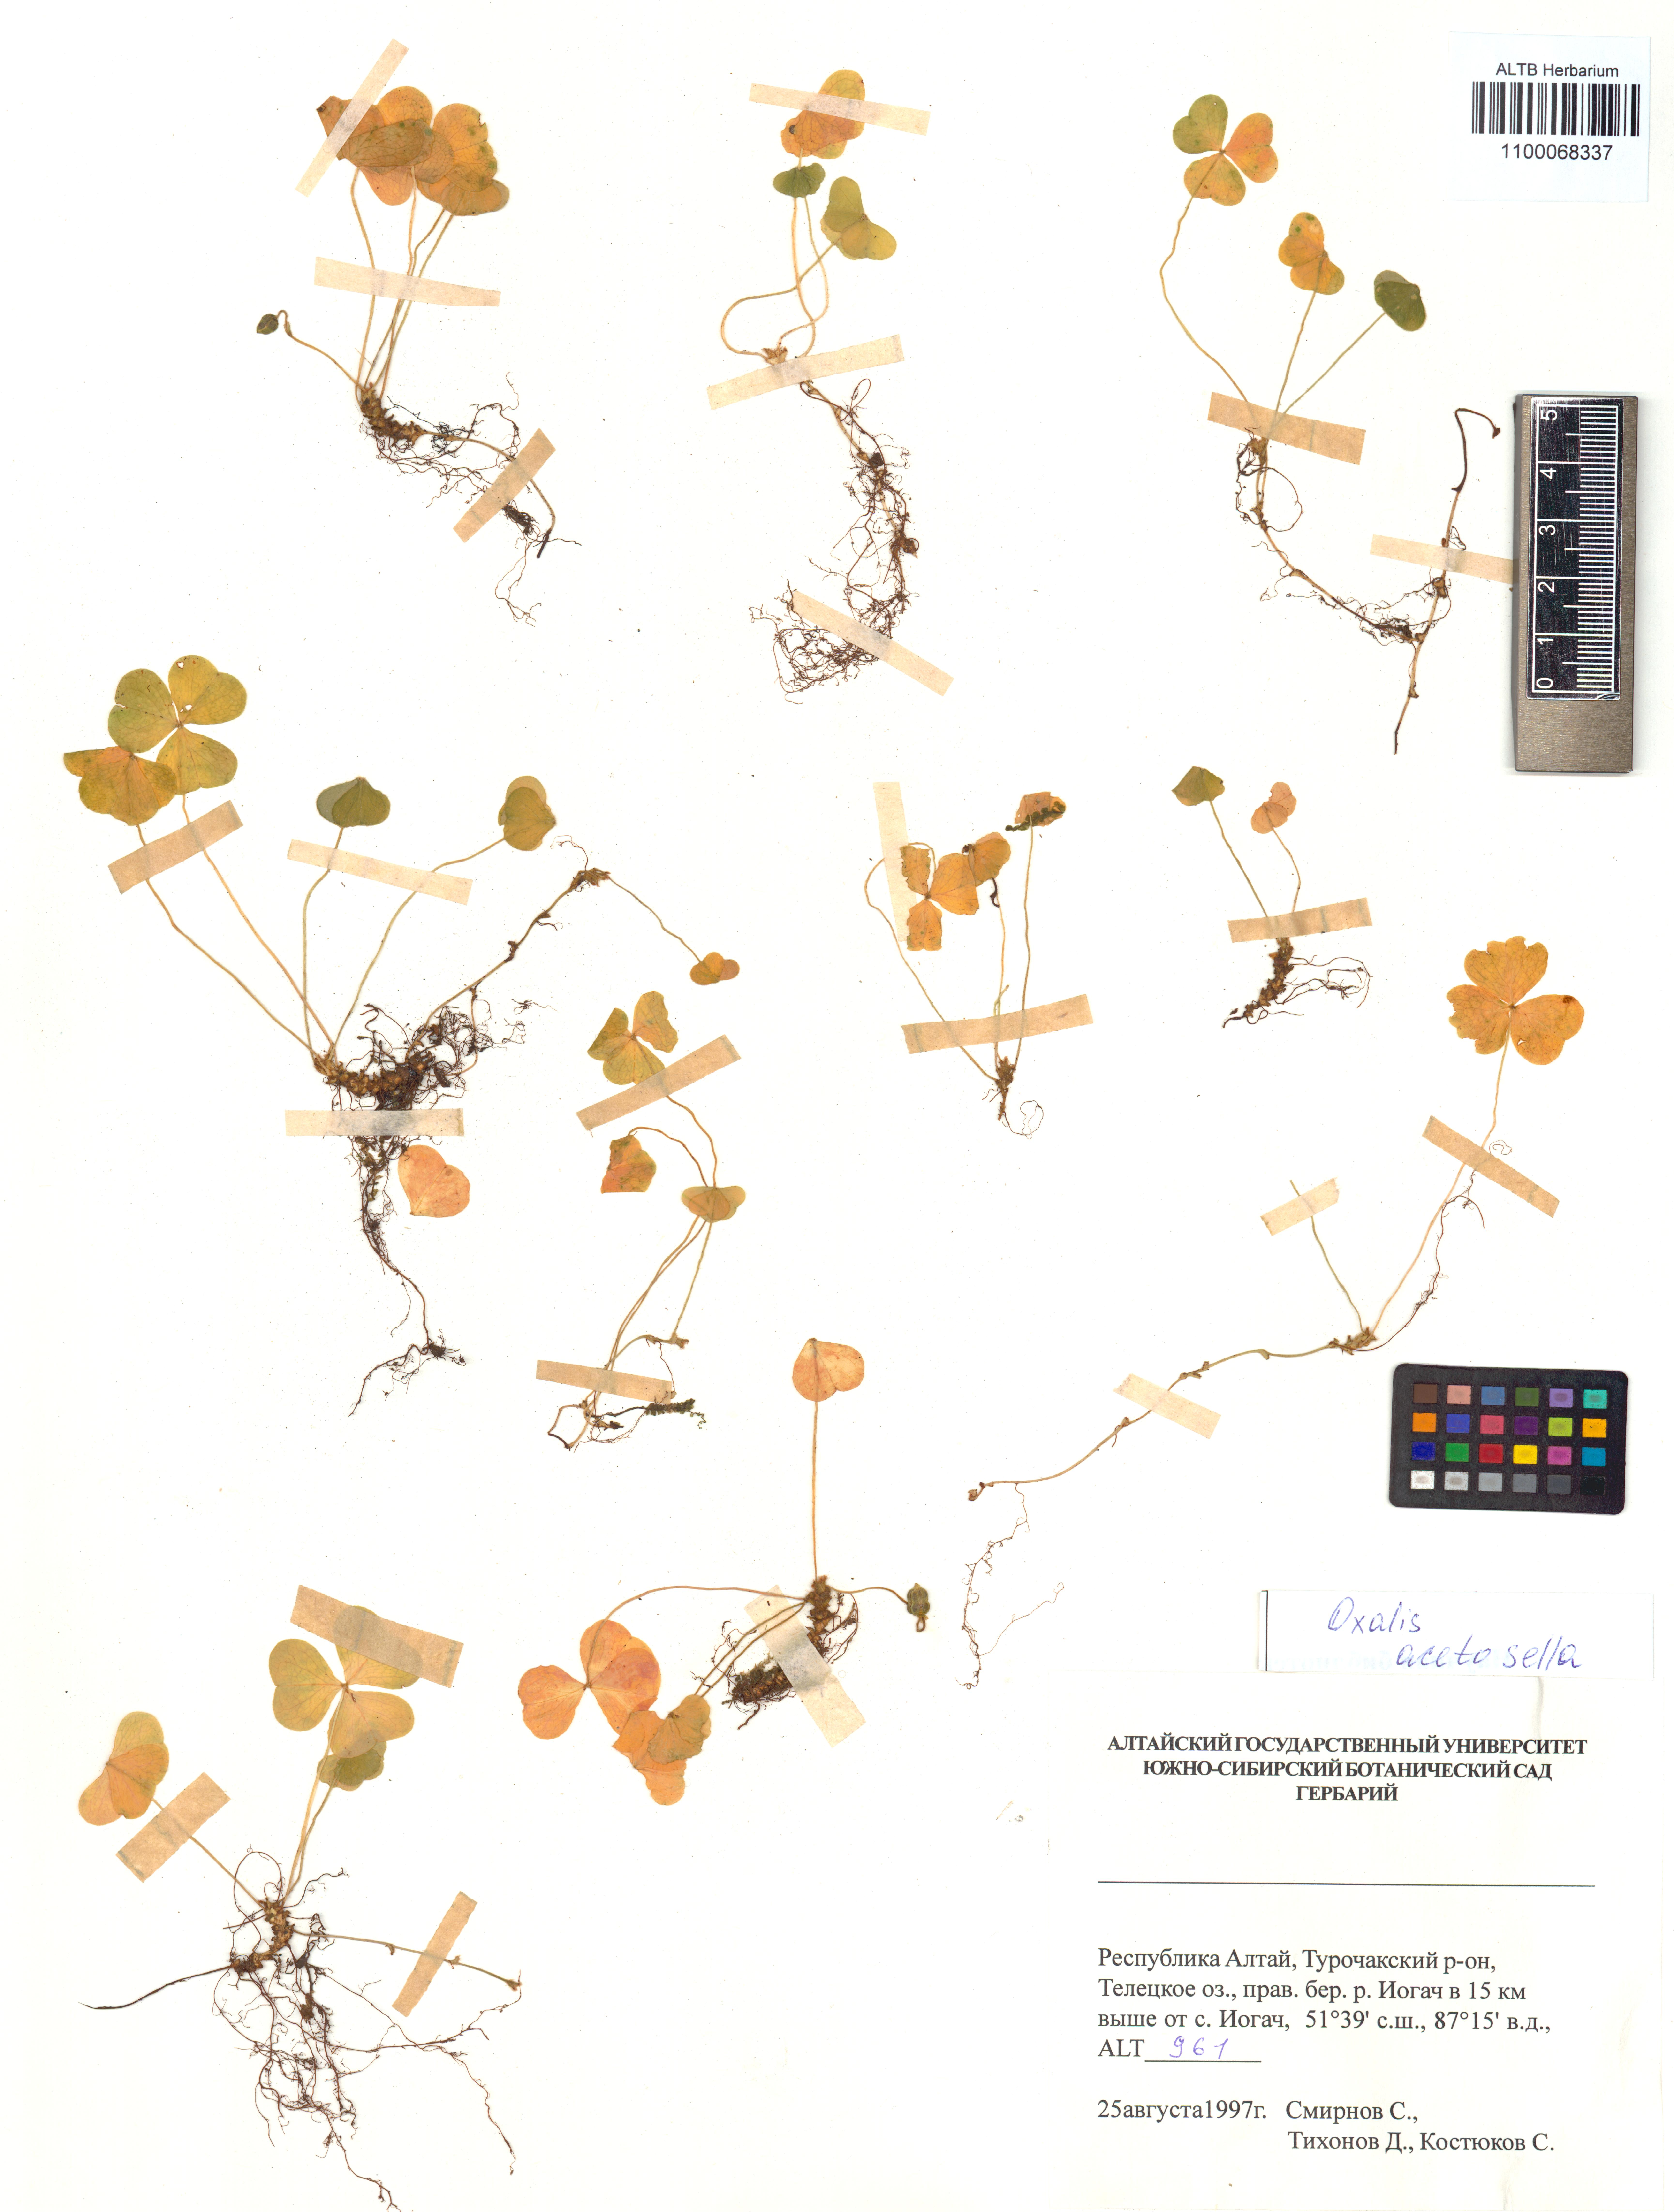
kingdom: Plantae
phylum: Tracheophyta
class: Magnoliopsida
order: Oxalidales
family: Oxalidaceae
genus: Oxalis
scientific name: Oxalis acetosella
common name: Wood-sorrel
